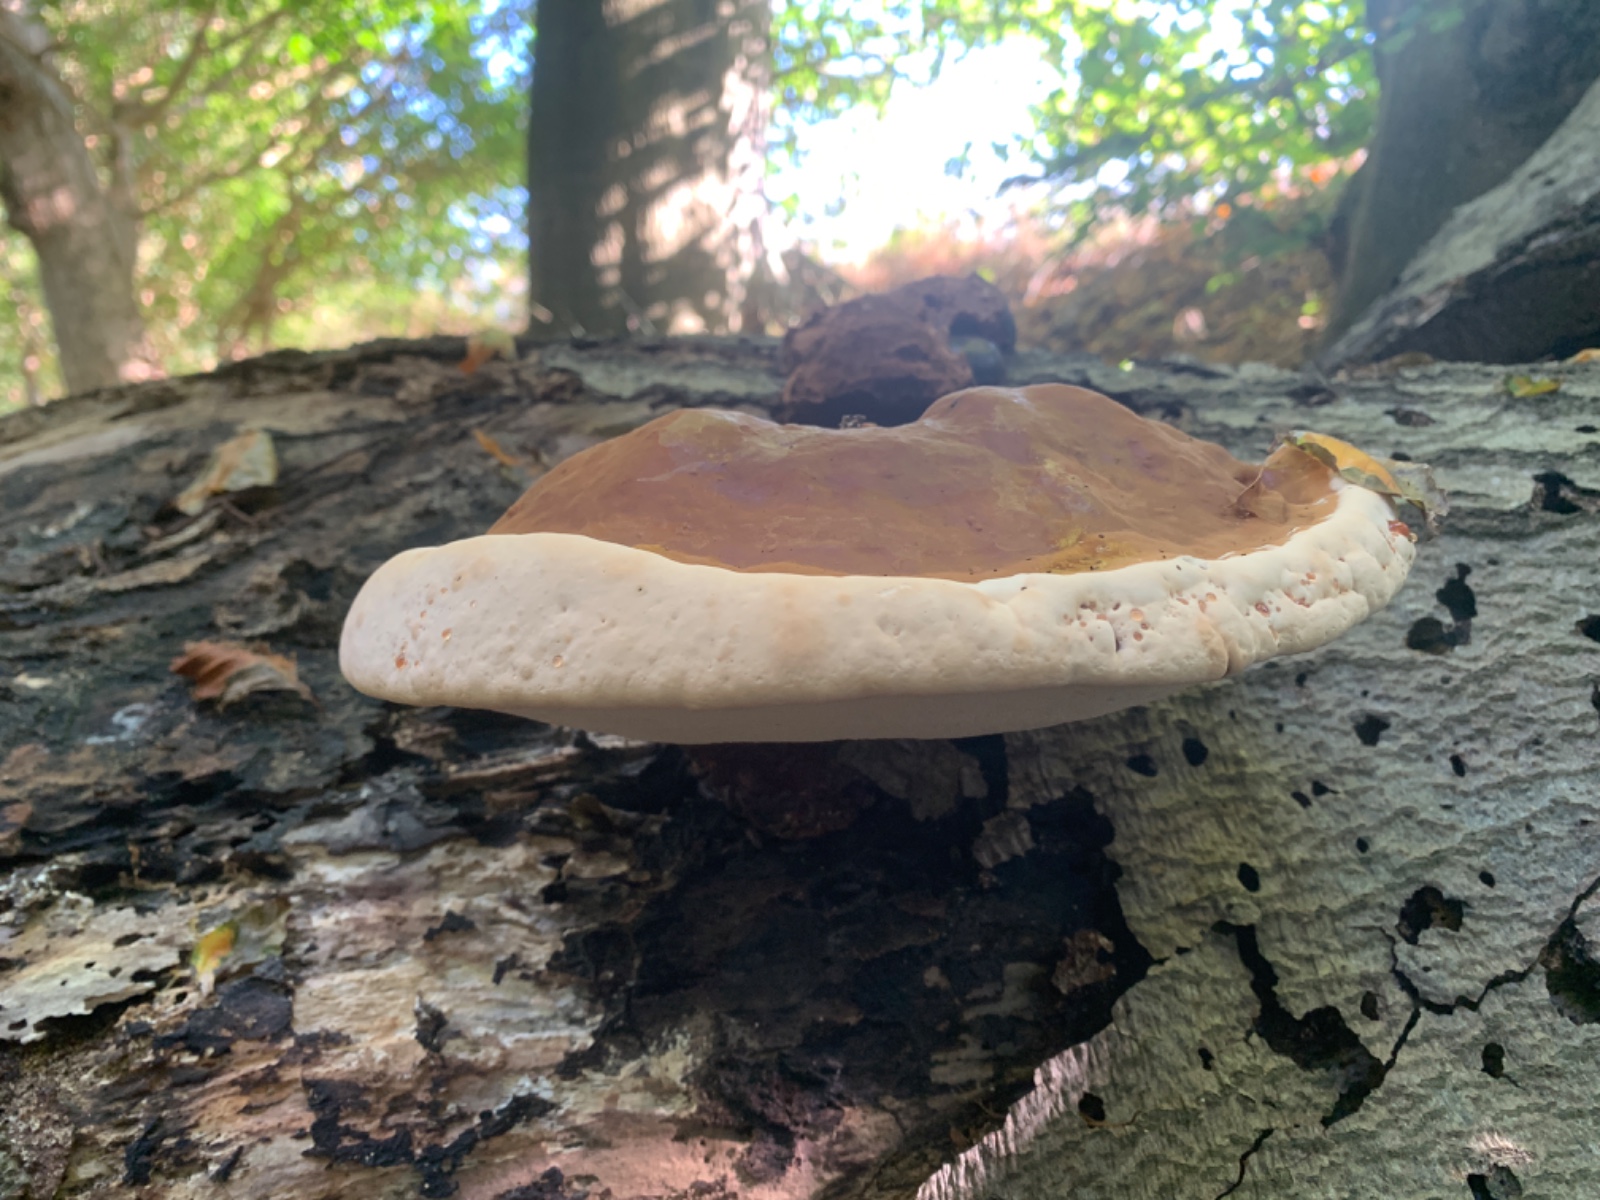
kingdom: Fungi
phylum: Basidiomycota
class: Agaricomycetes
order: Polyporales
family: Polyporaceae
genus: Ganoderma
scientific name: Ganoderma resinaceum
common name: gyldenbrun lakporesvamp
